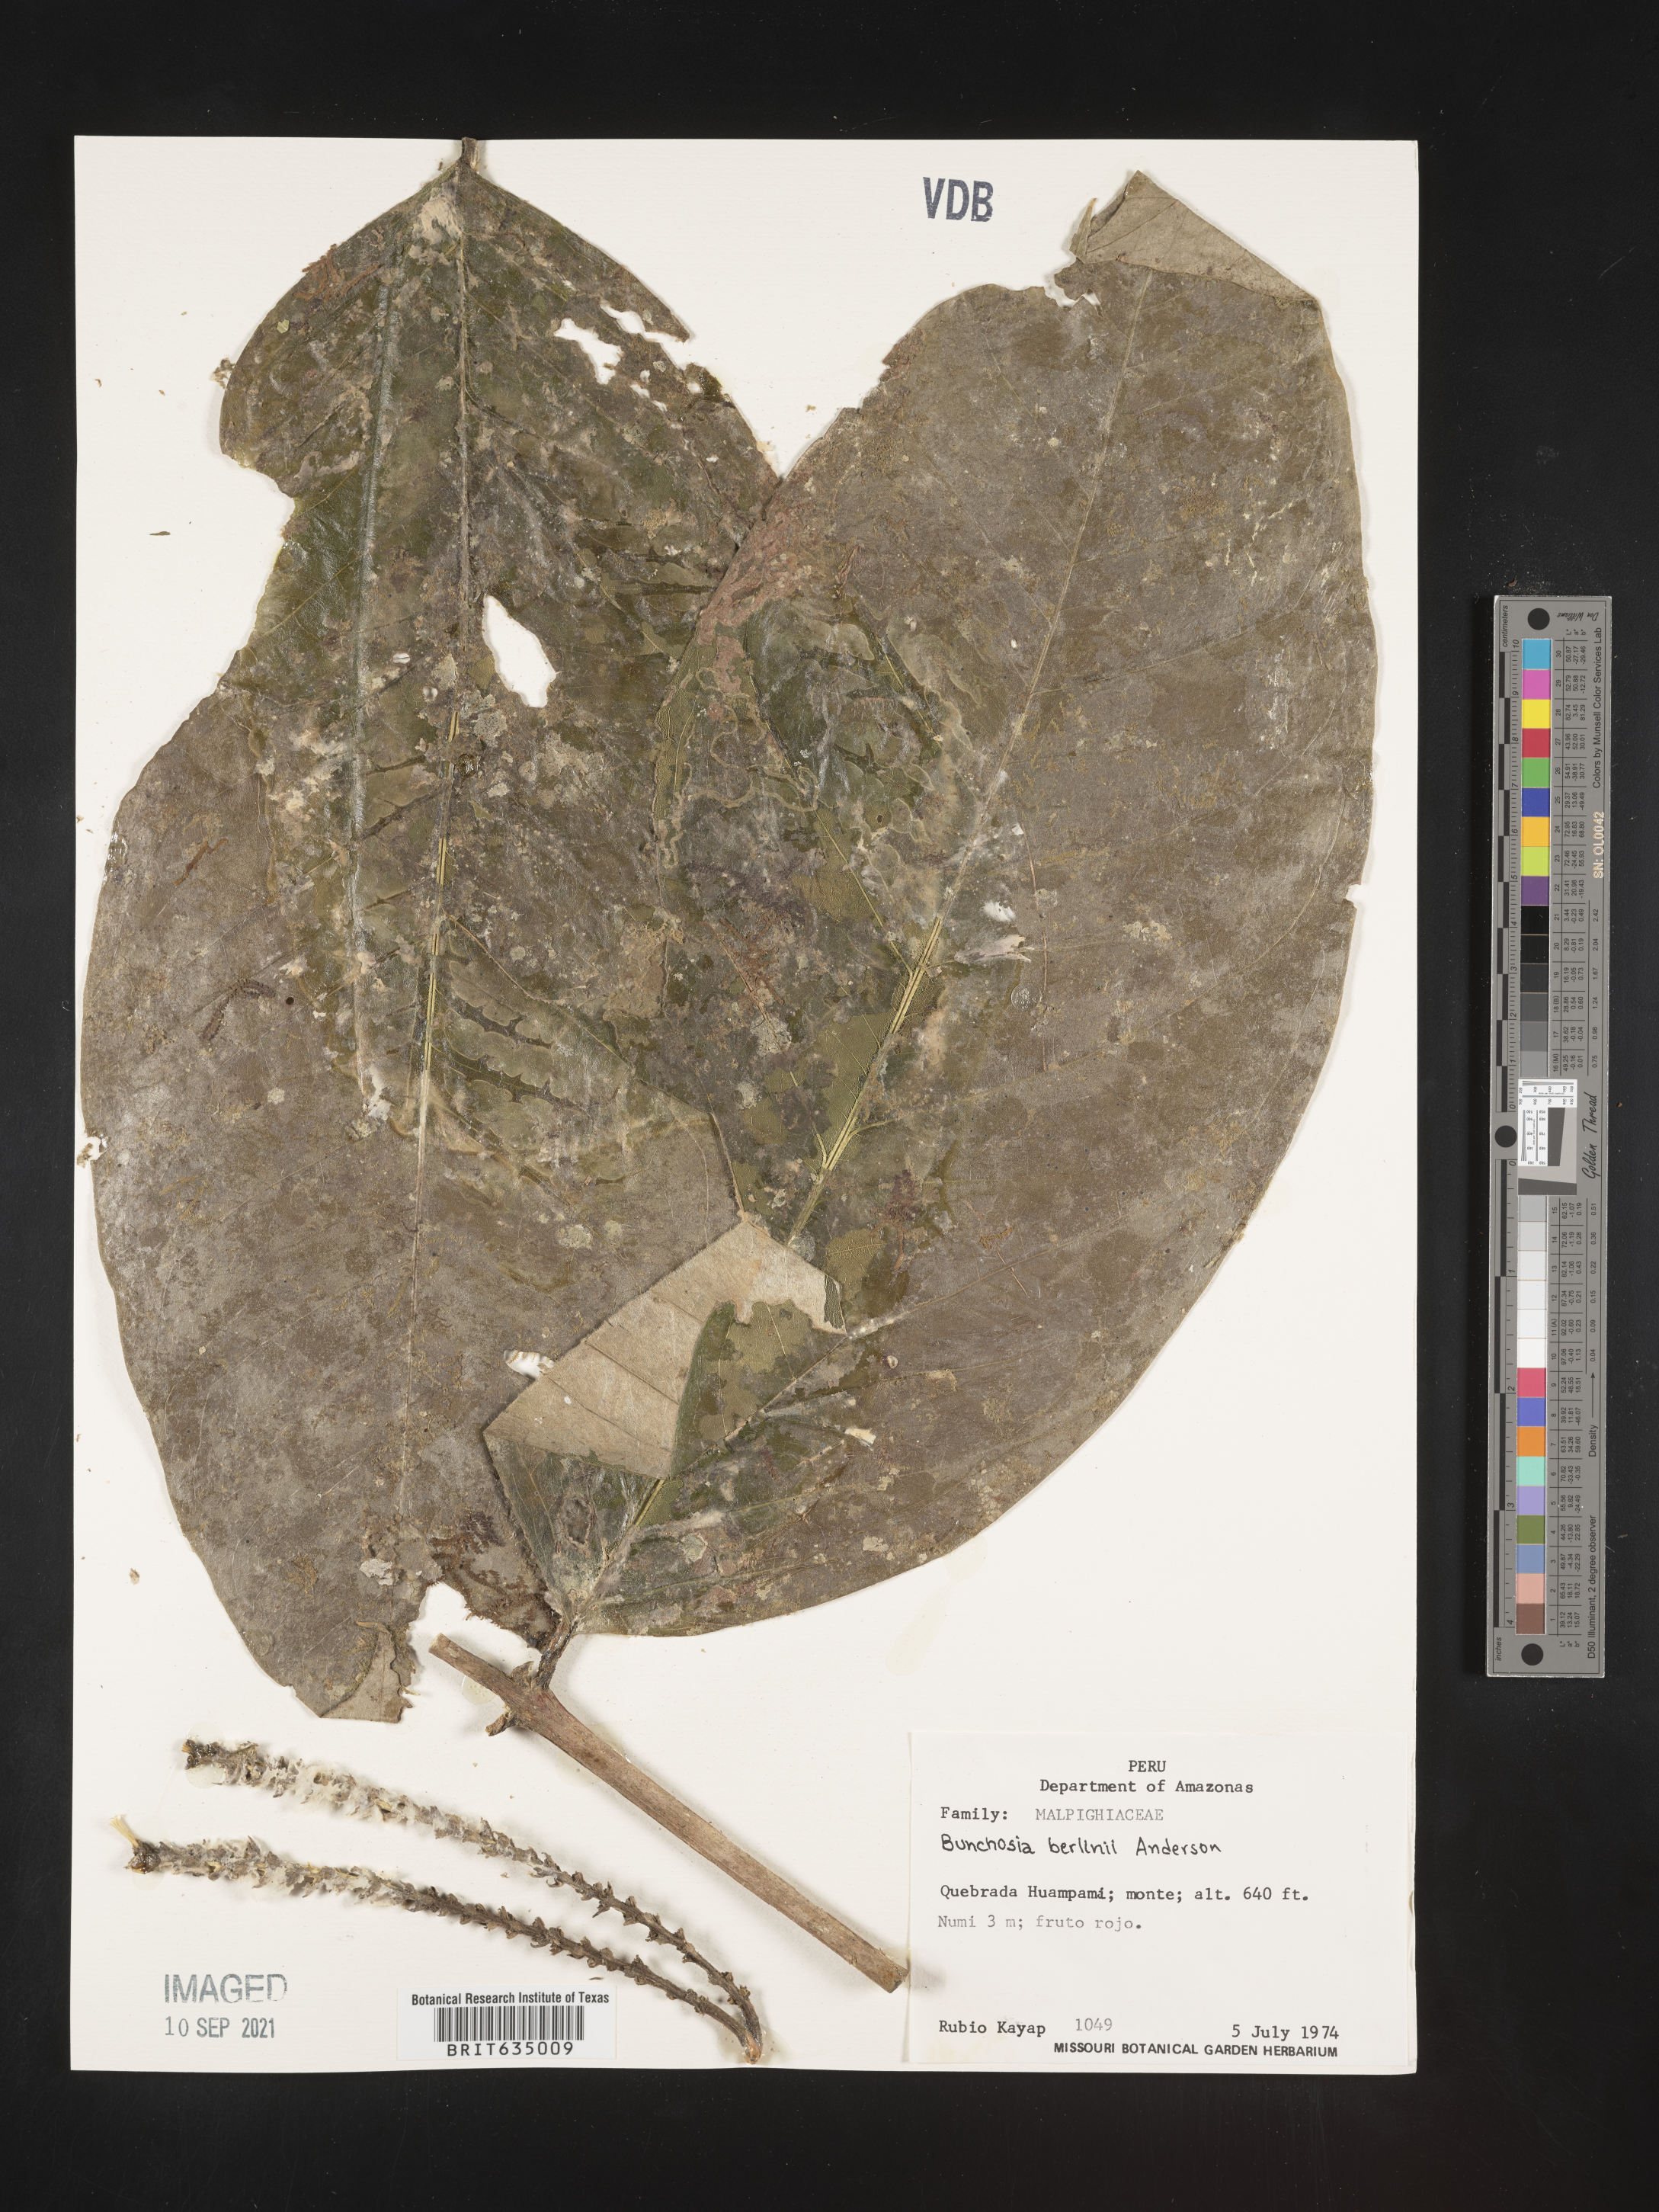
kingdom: Plantae
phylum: Tracheophyta
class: Magnoliopsida
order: Malpighiales
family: Malpighiaceae
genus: Bunchosia
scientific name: Bunchosia
